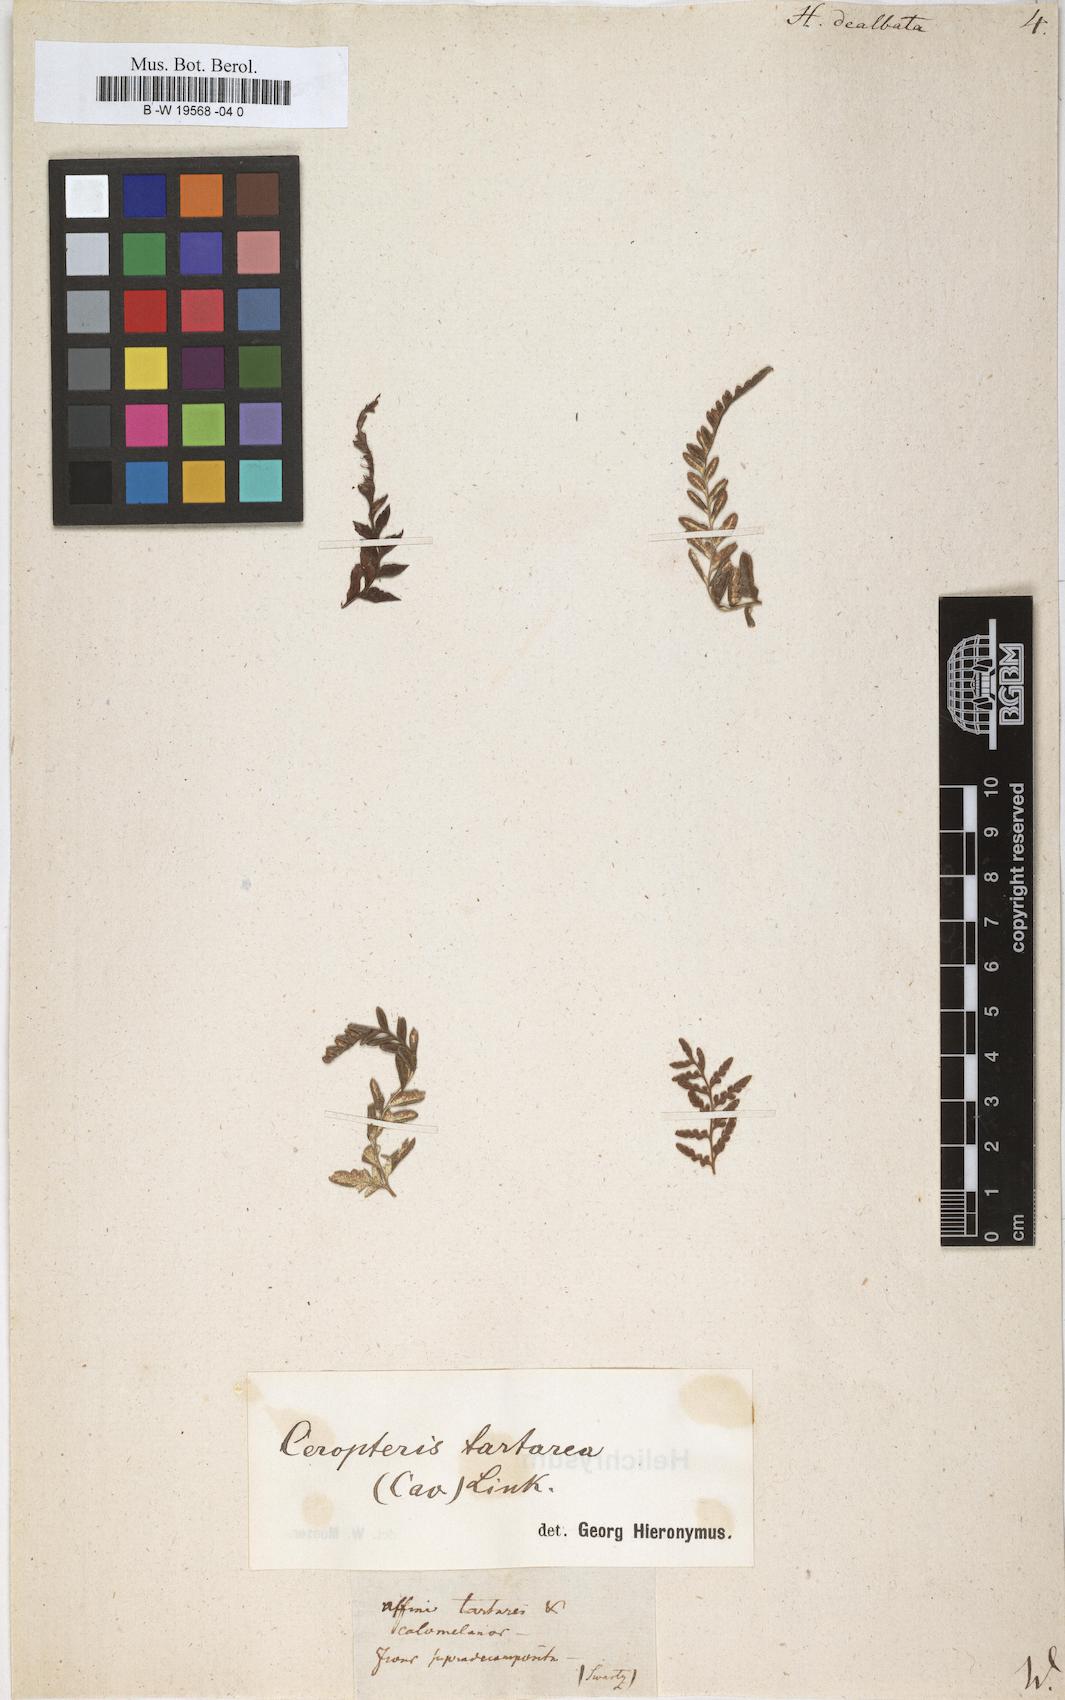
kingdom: Plantae
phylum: Tracheophyta
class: Polypodiopsida
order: Polypodiales
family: Pteridaceae
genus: Pityrogramma
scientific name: Pityrogramma ebenea
